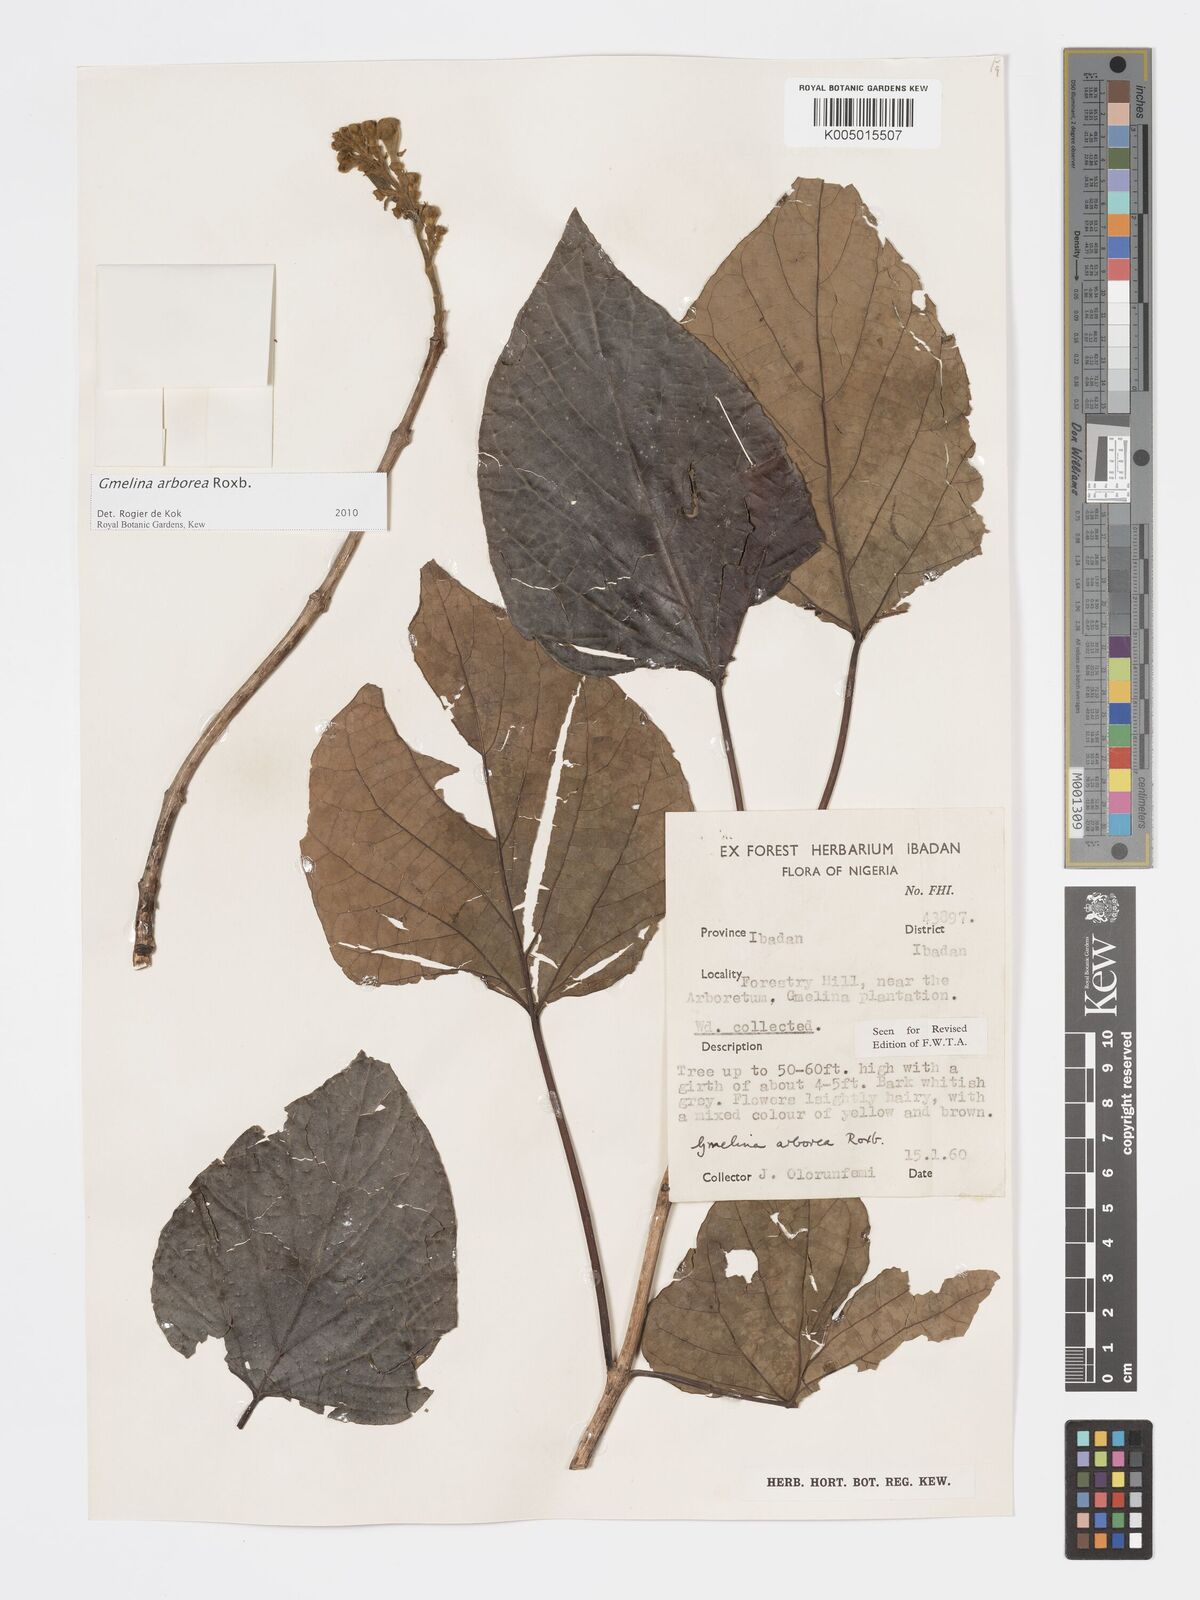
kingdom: Plantae
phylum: Tracheophyta
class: Magnoliopsida
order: Lamiales
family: Lamiaceae
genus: Gmelina
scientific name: Gmelina arborea
